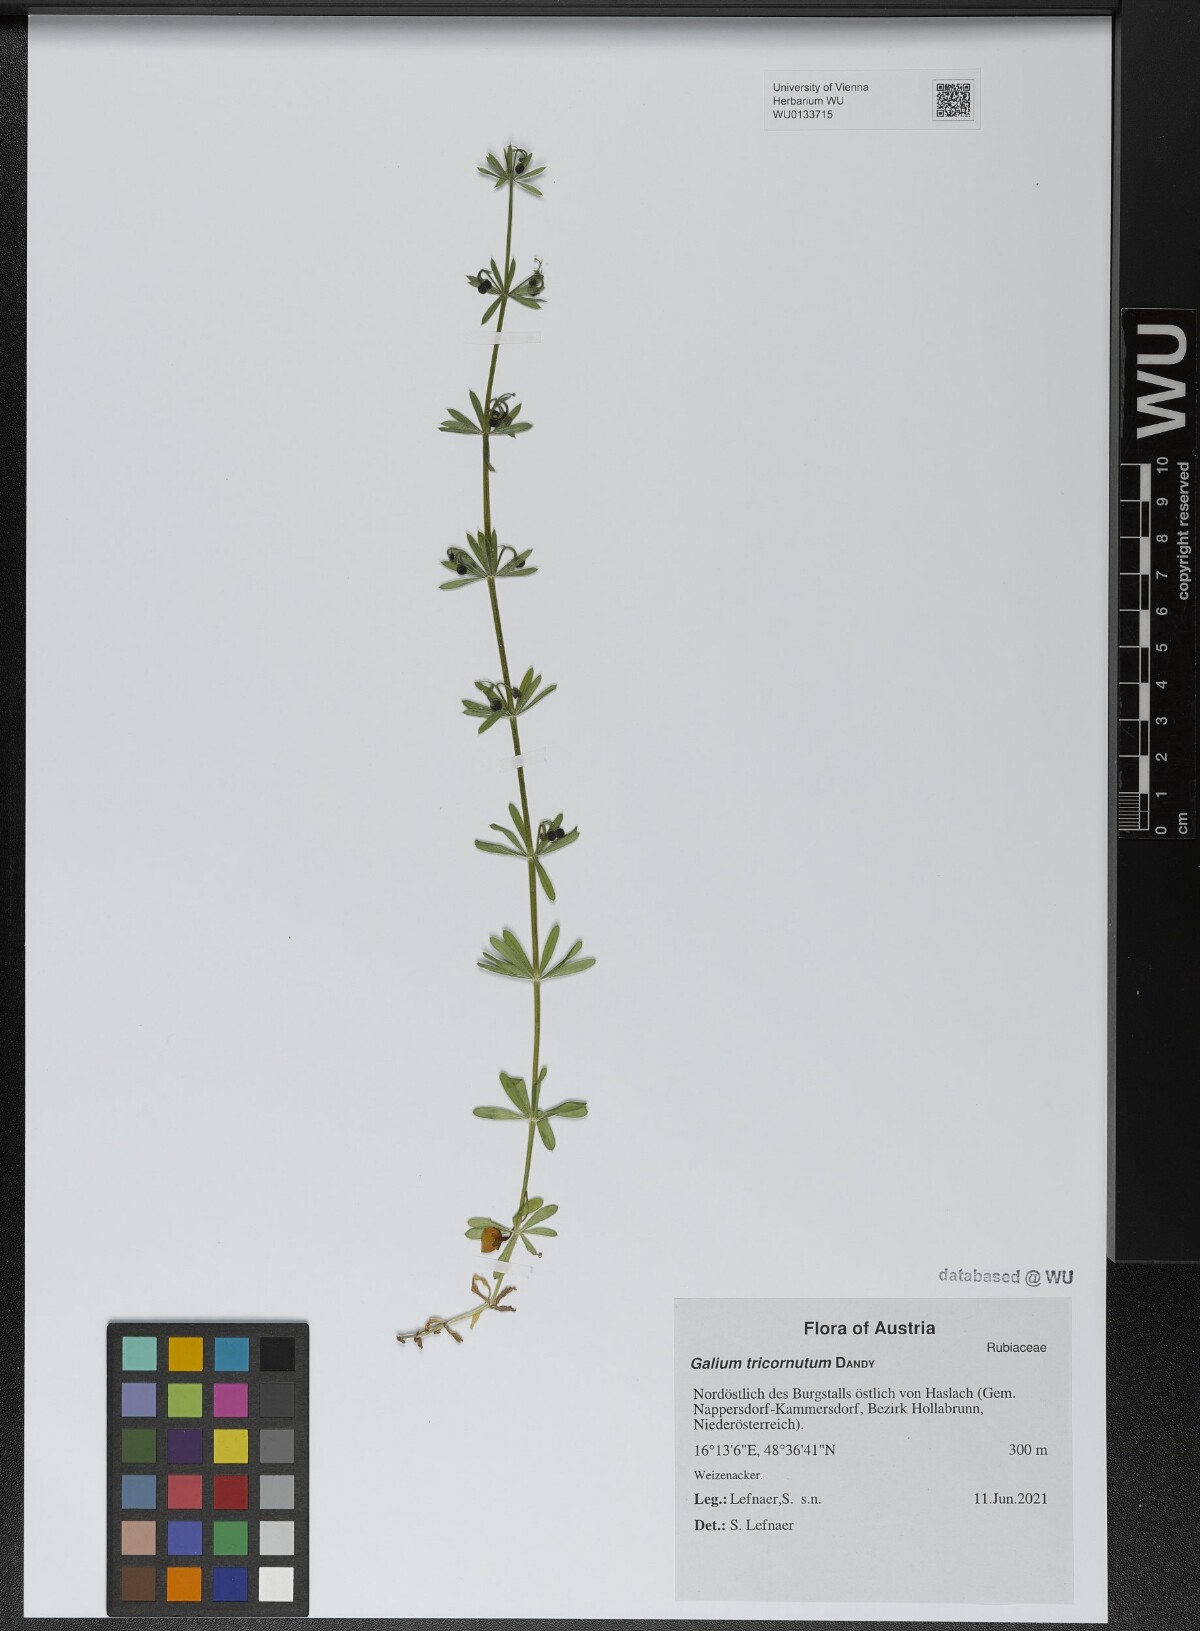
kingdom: Plantae
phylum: Tracheophyta
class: Magnoliopsida
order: Gentianales
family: Rubiaceae
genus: Galium
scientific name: Galium tricornutum
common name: Corn cleavers
